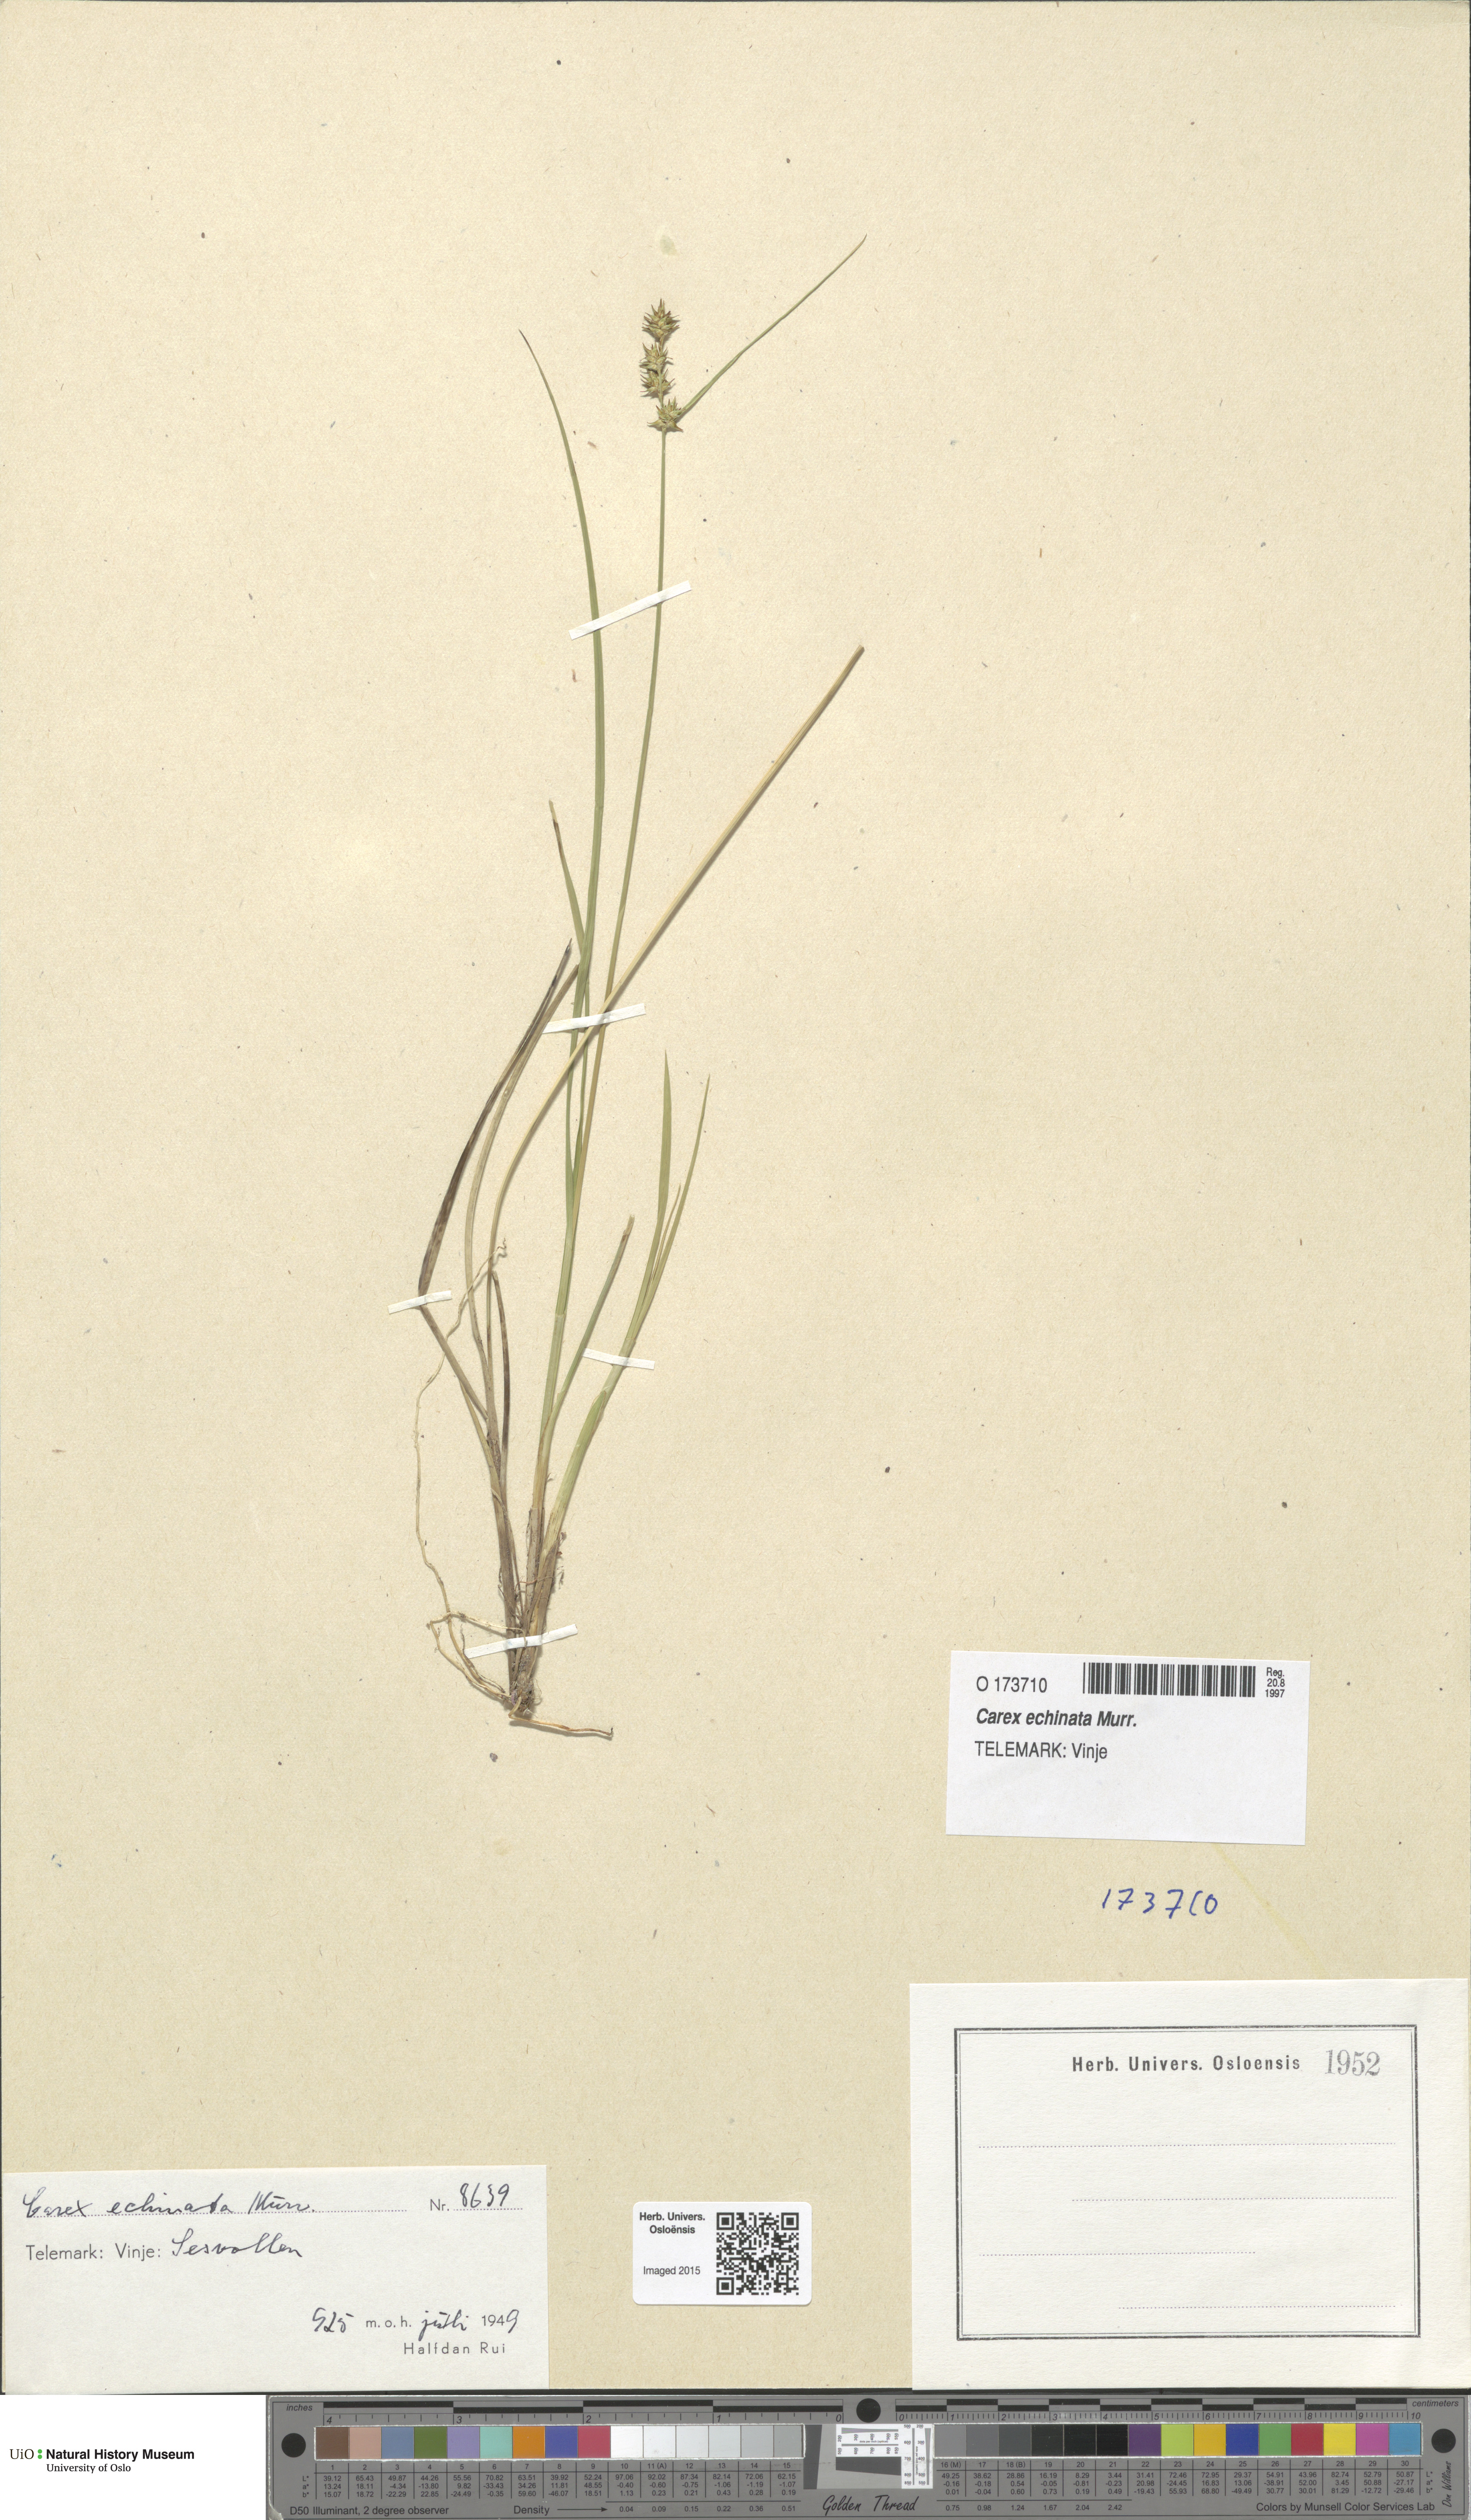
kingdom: Plantae
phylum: Tracheophyta
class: Liliopsida
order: Poales
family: Cyperaceae
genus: Carex
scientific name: Carex echinata
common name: Star sedge
